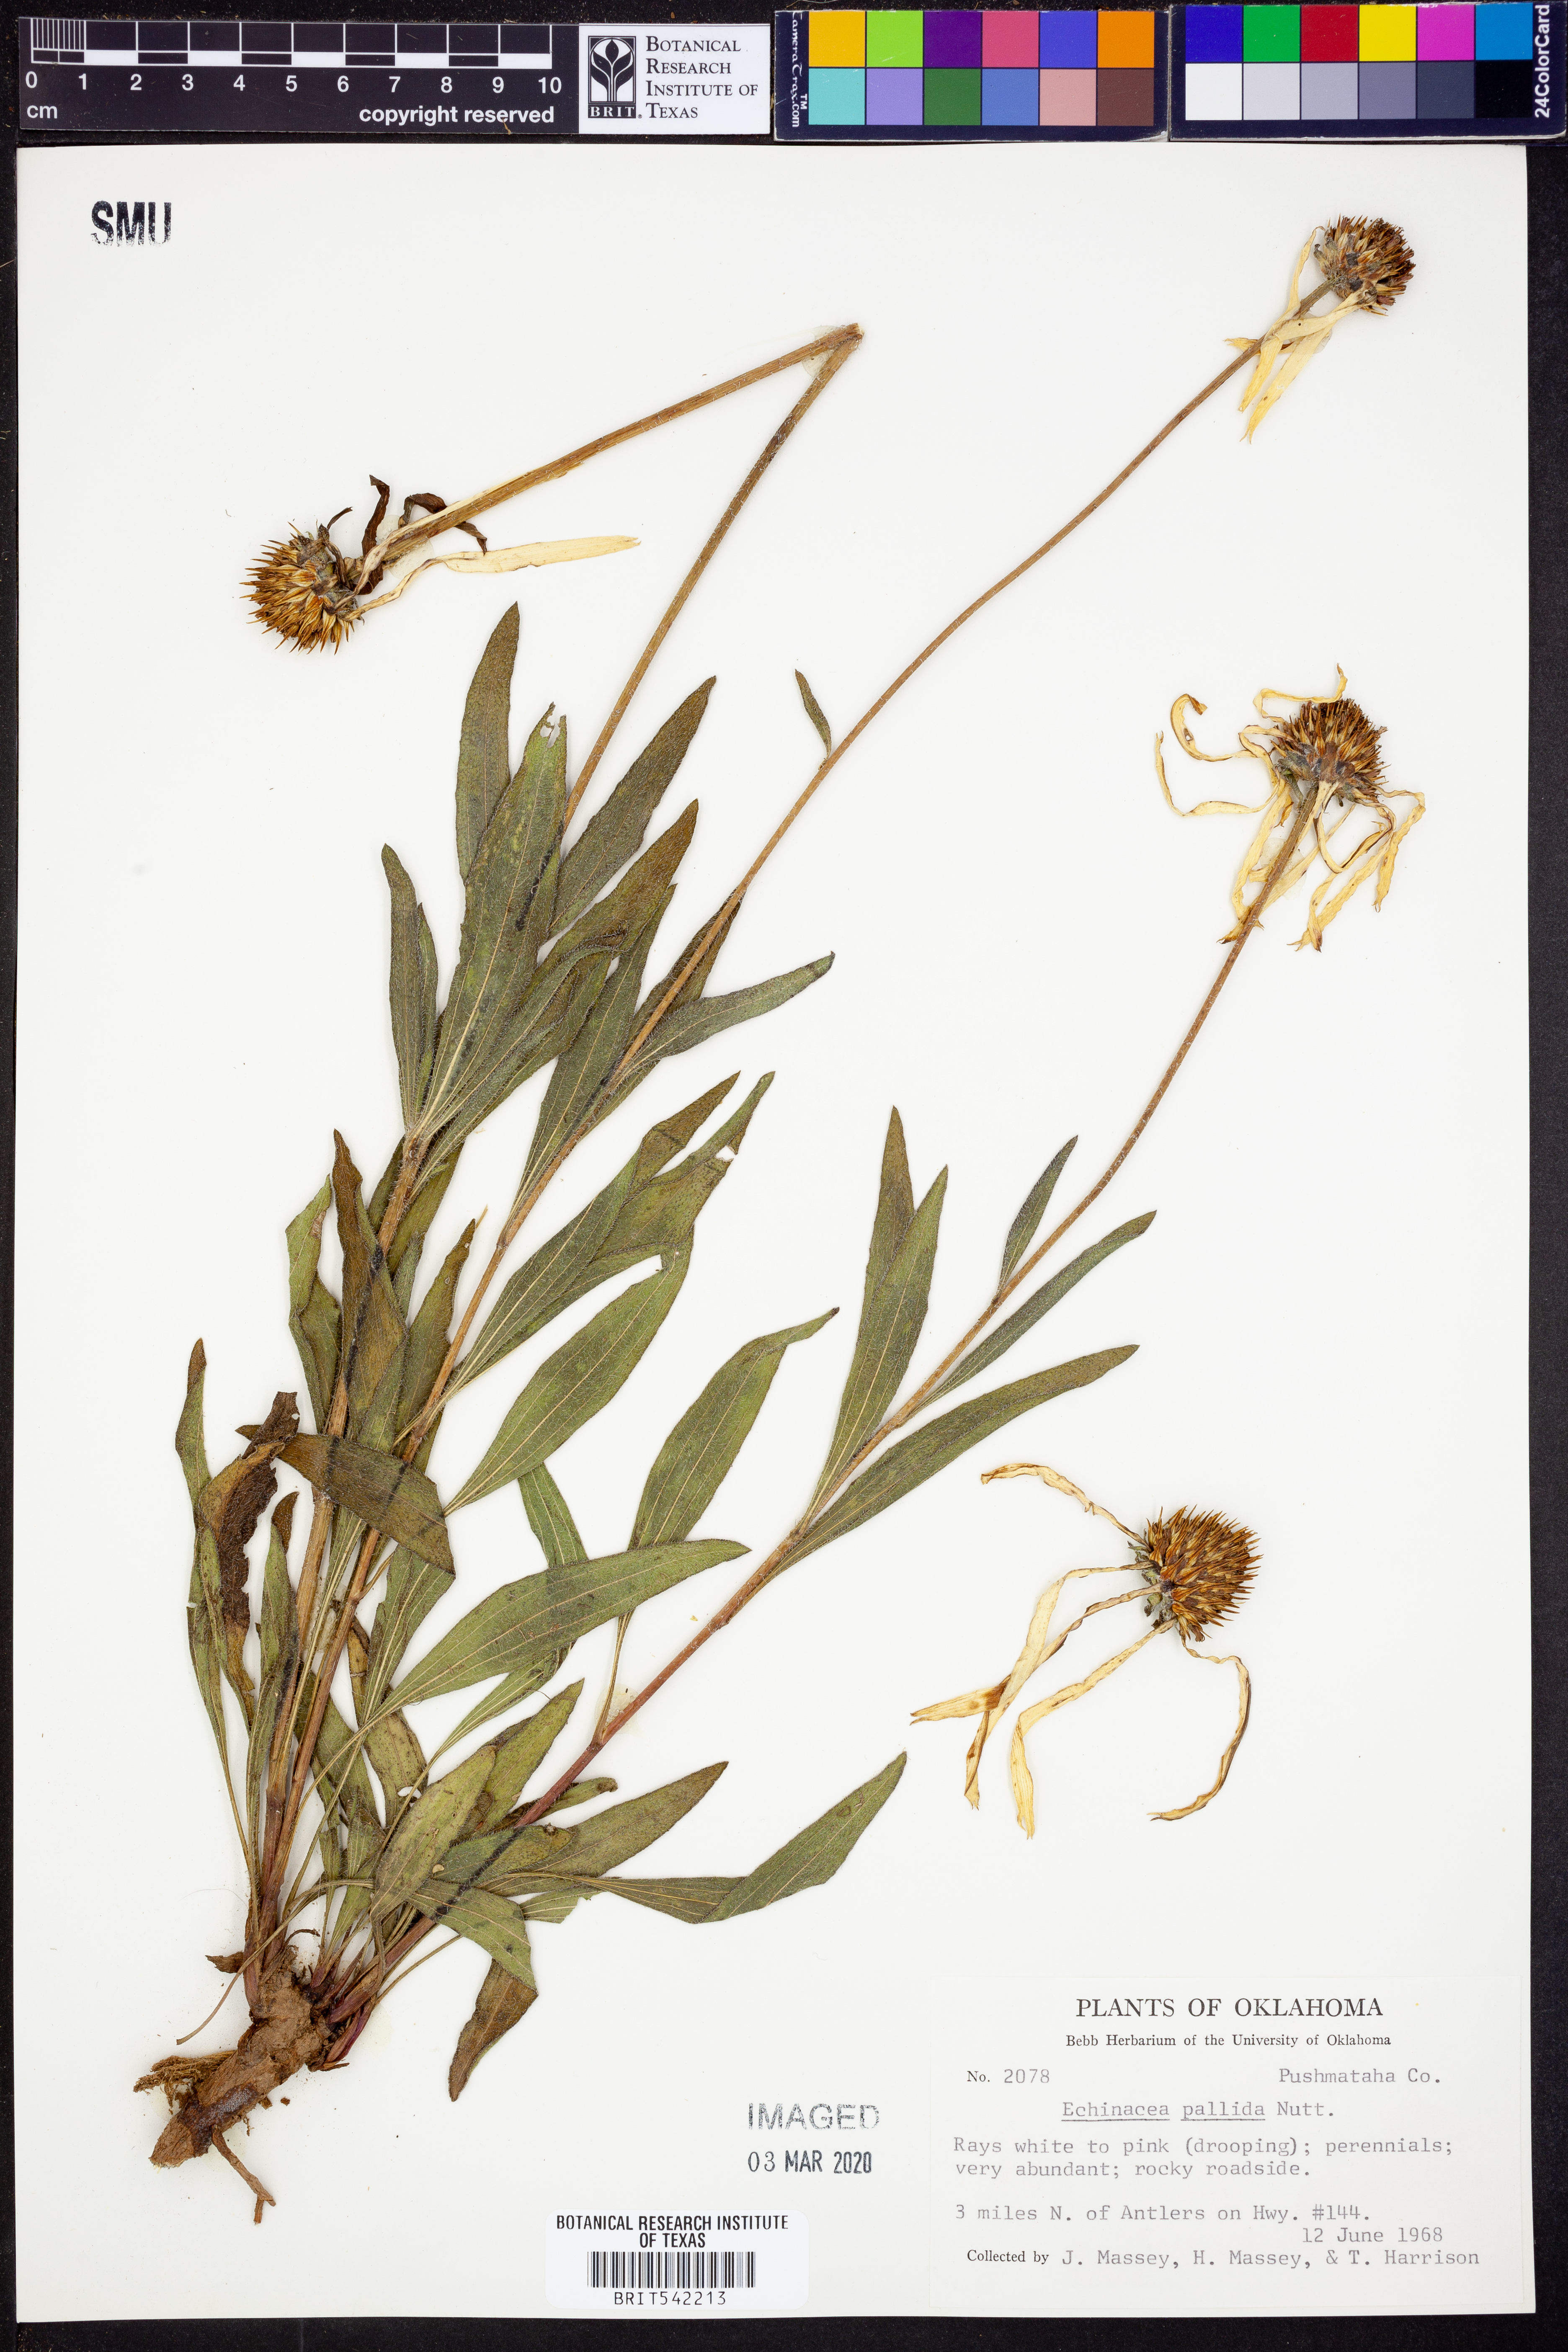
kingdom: Plantae
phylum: Tracheophyta
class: Magnoliopsida
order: Asterales
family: Asteraceae
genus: Echinacea
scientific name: Echinacea pallida
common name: Pale echinacea
